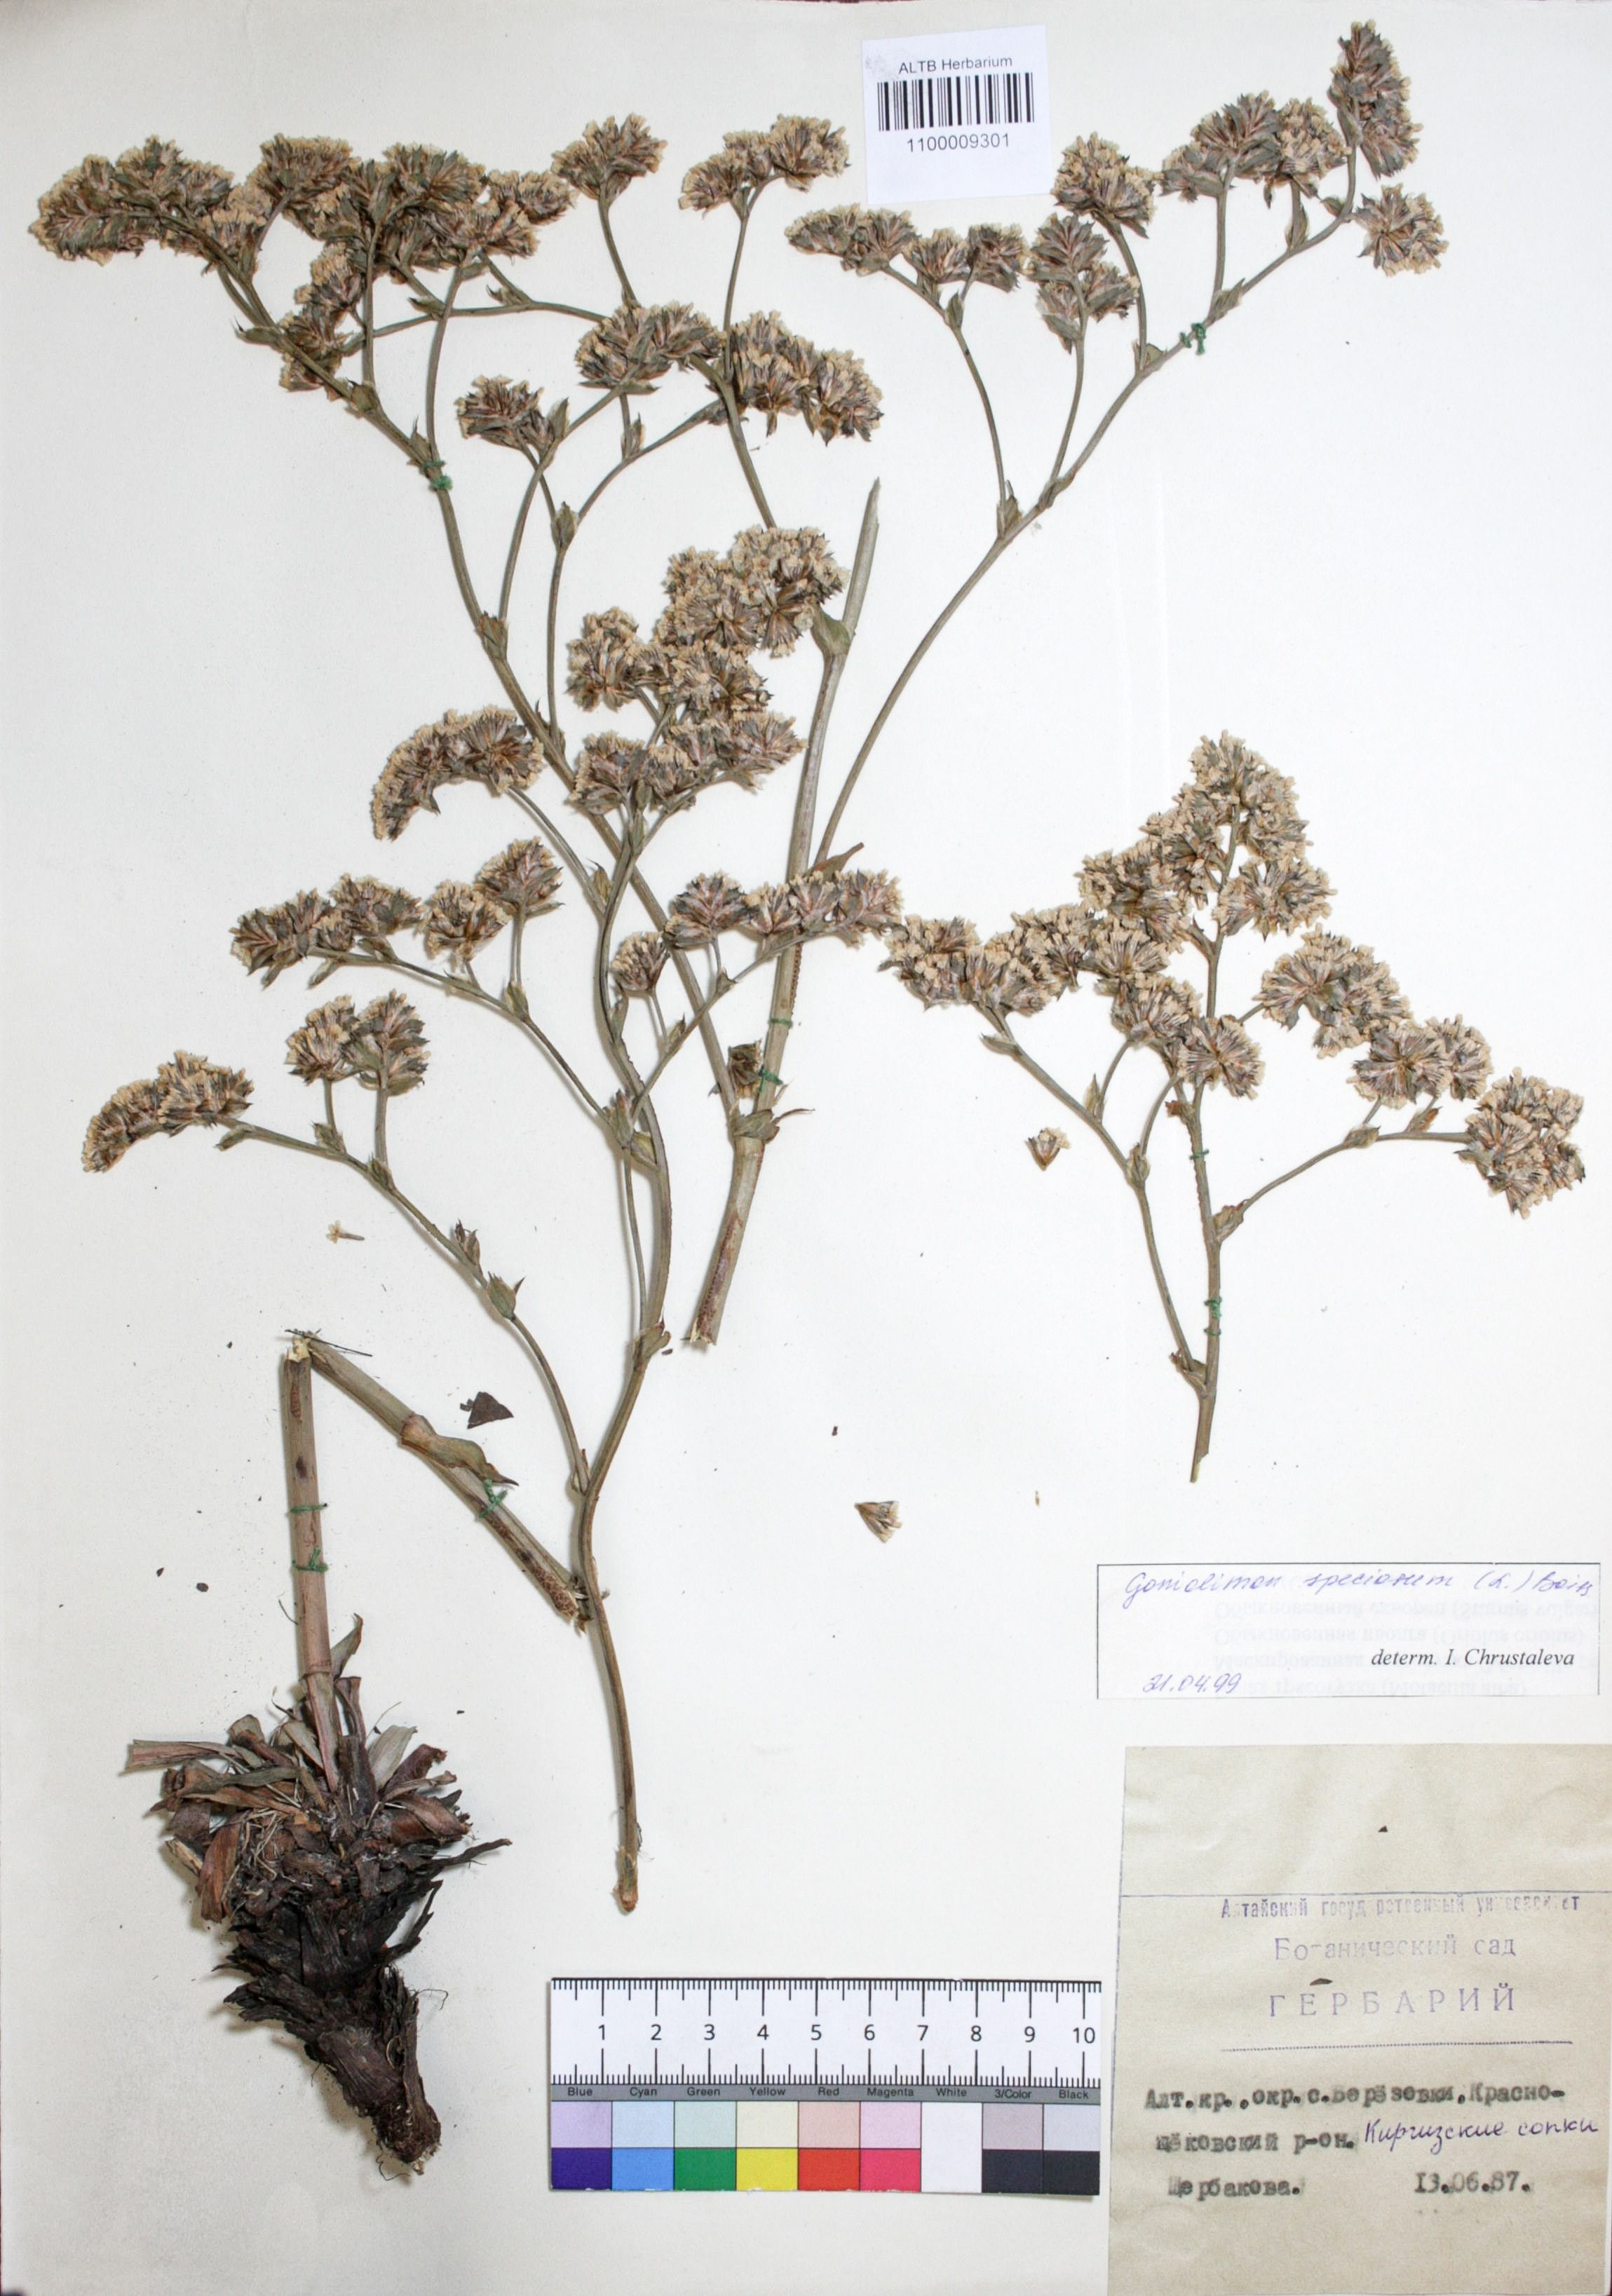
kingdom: Plantae
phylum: Tracheophyta
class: Magnoliopsida
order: Caryophyllales
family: Plumbaginaceae
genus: Goniolimon
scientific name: Goniolimon speciosum
